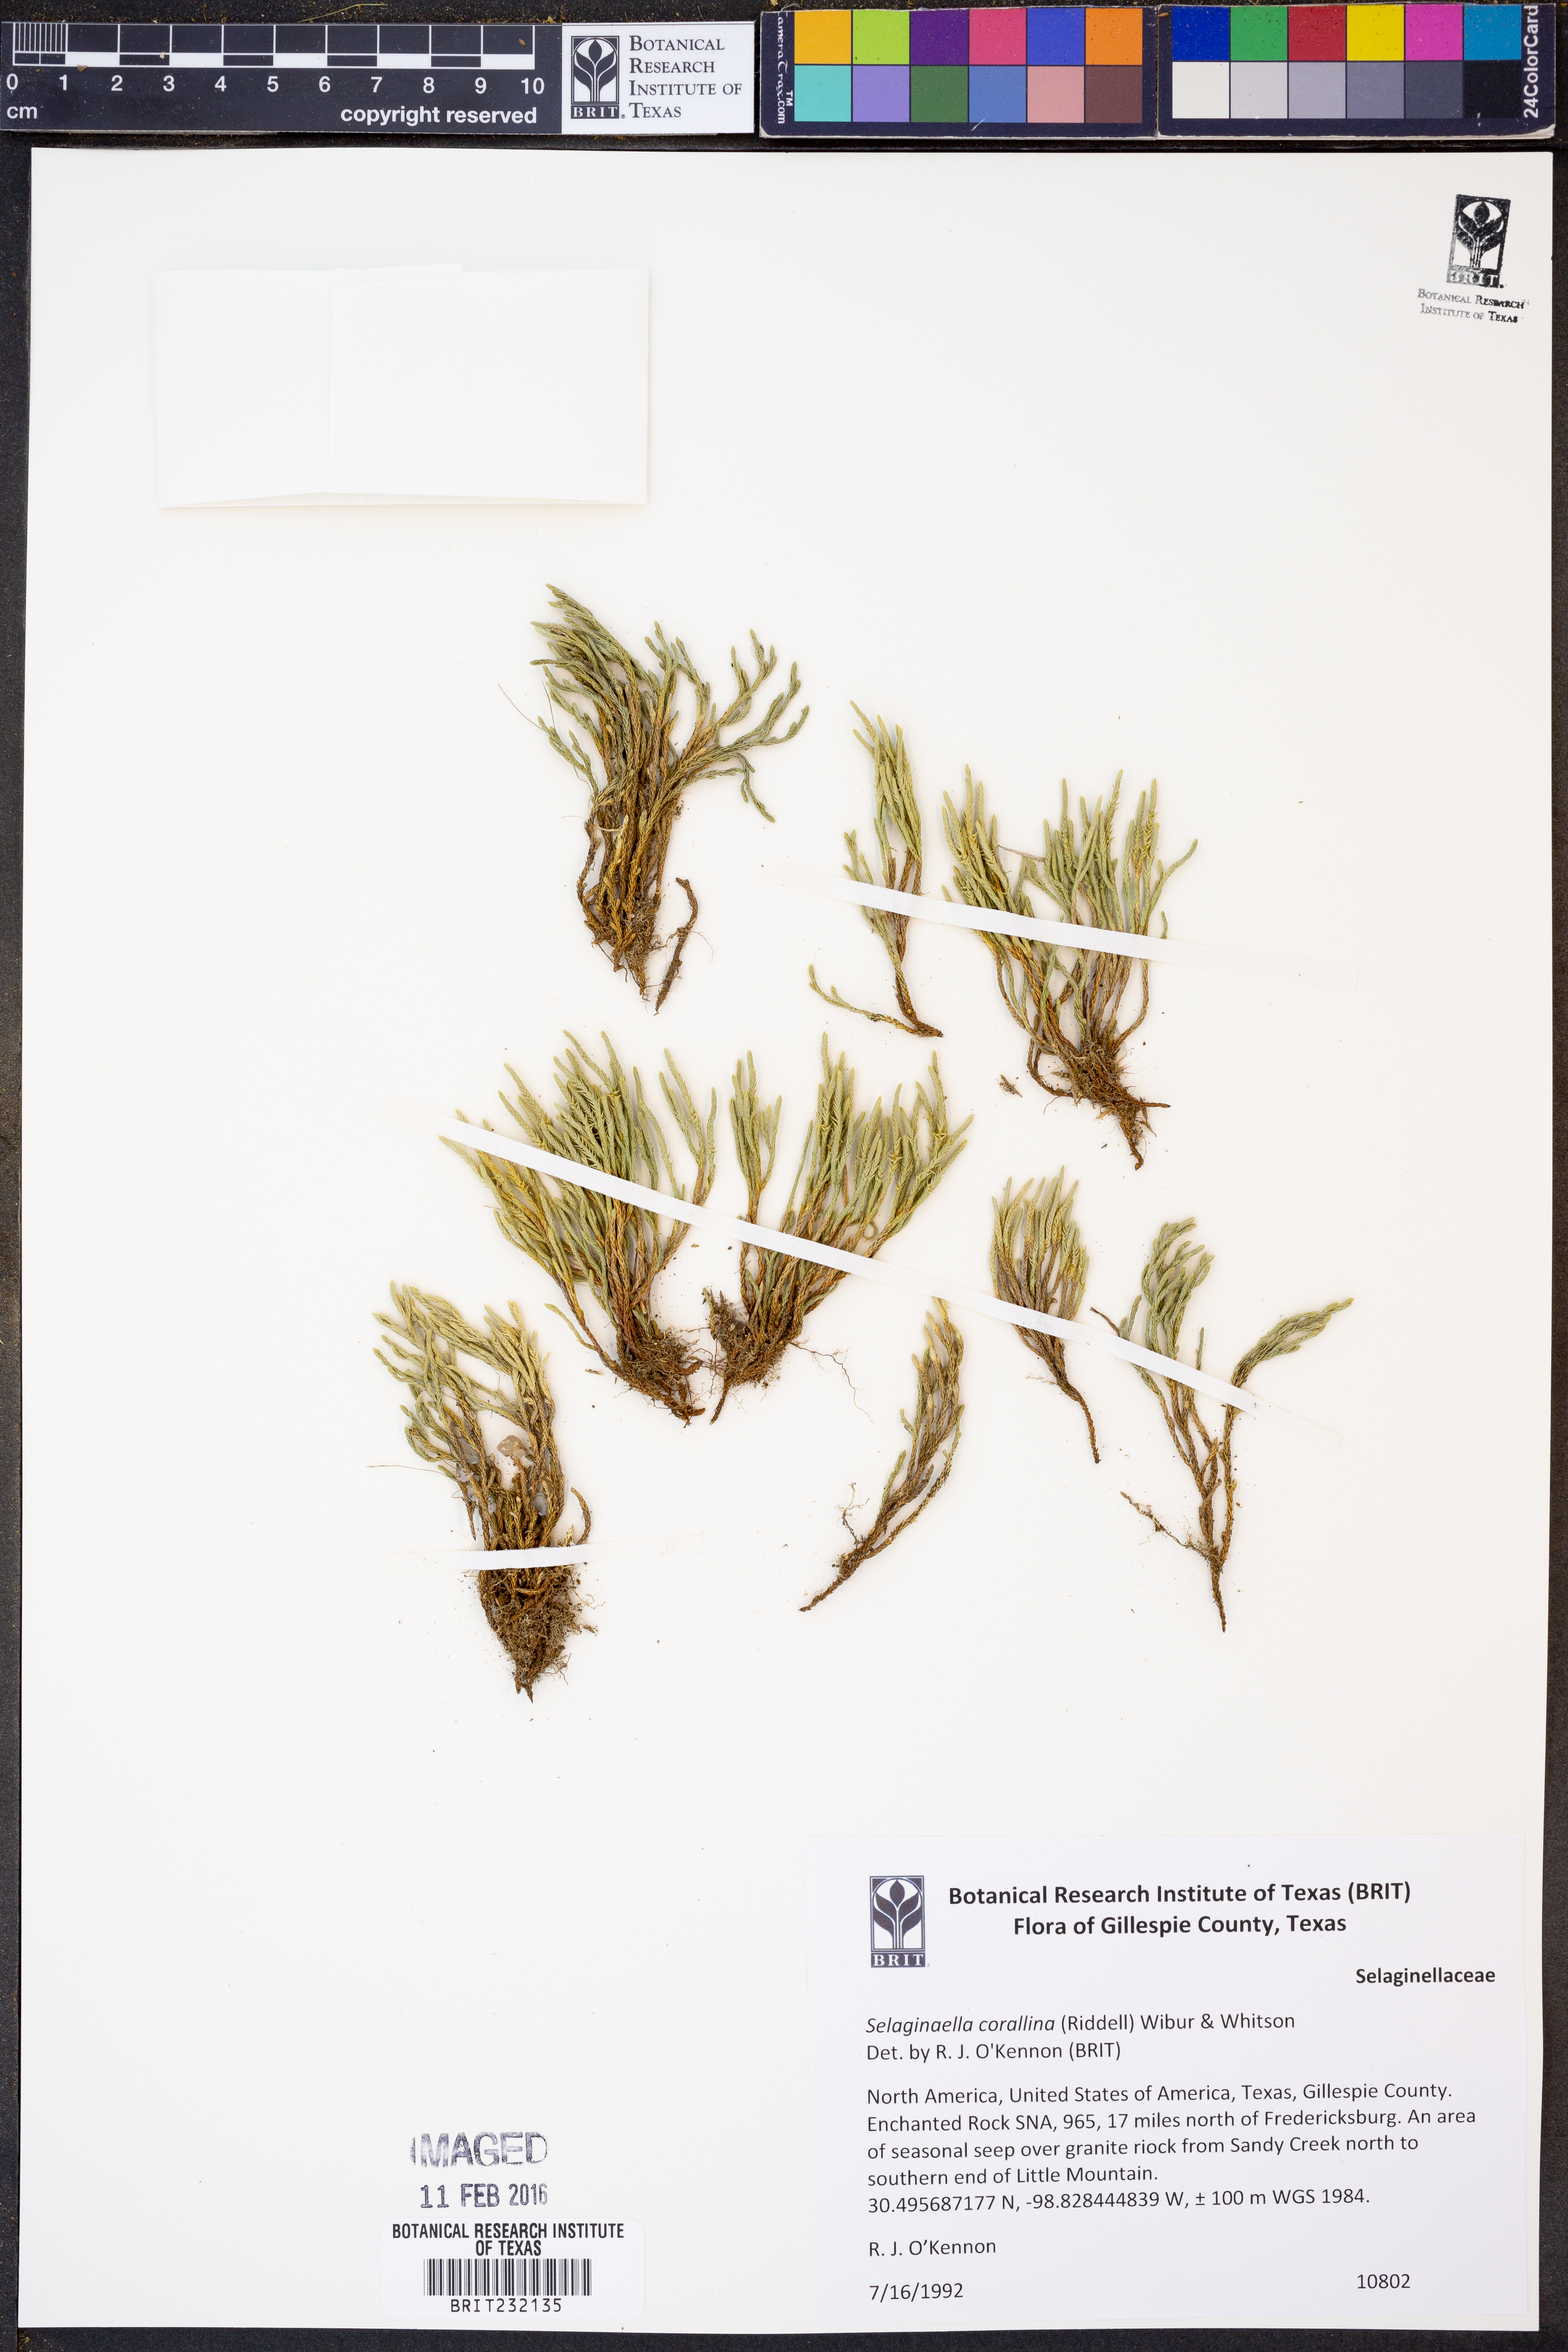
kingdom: Plantae
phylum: Tracheophyta
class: Lycopodiopsida
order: Selaginellales
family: Selaginellaceae
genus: Selaginella
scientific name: Selaginella corallina
